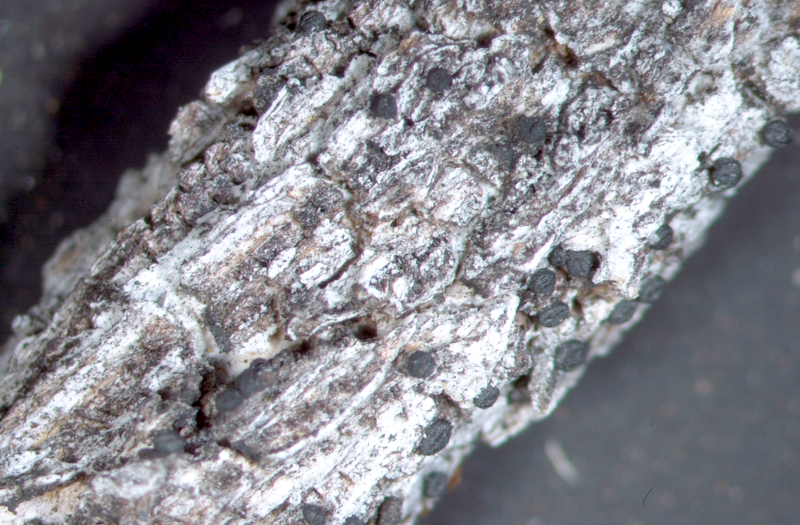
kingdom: Fungi
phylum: Ascomycota
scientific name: Ascomycota
